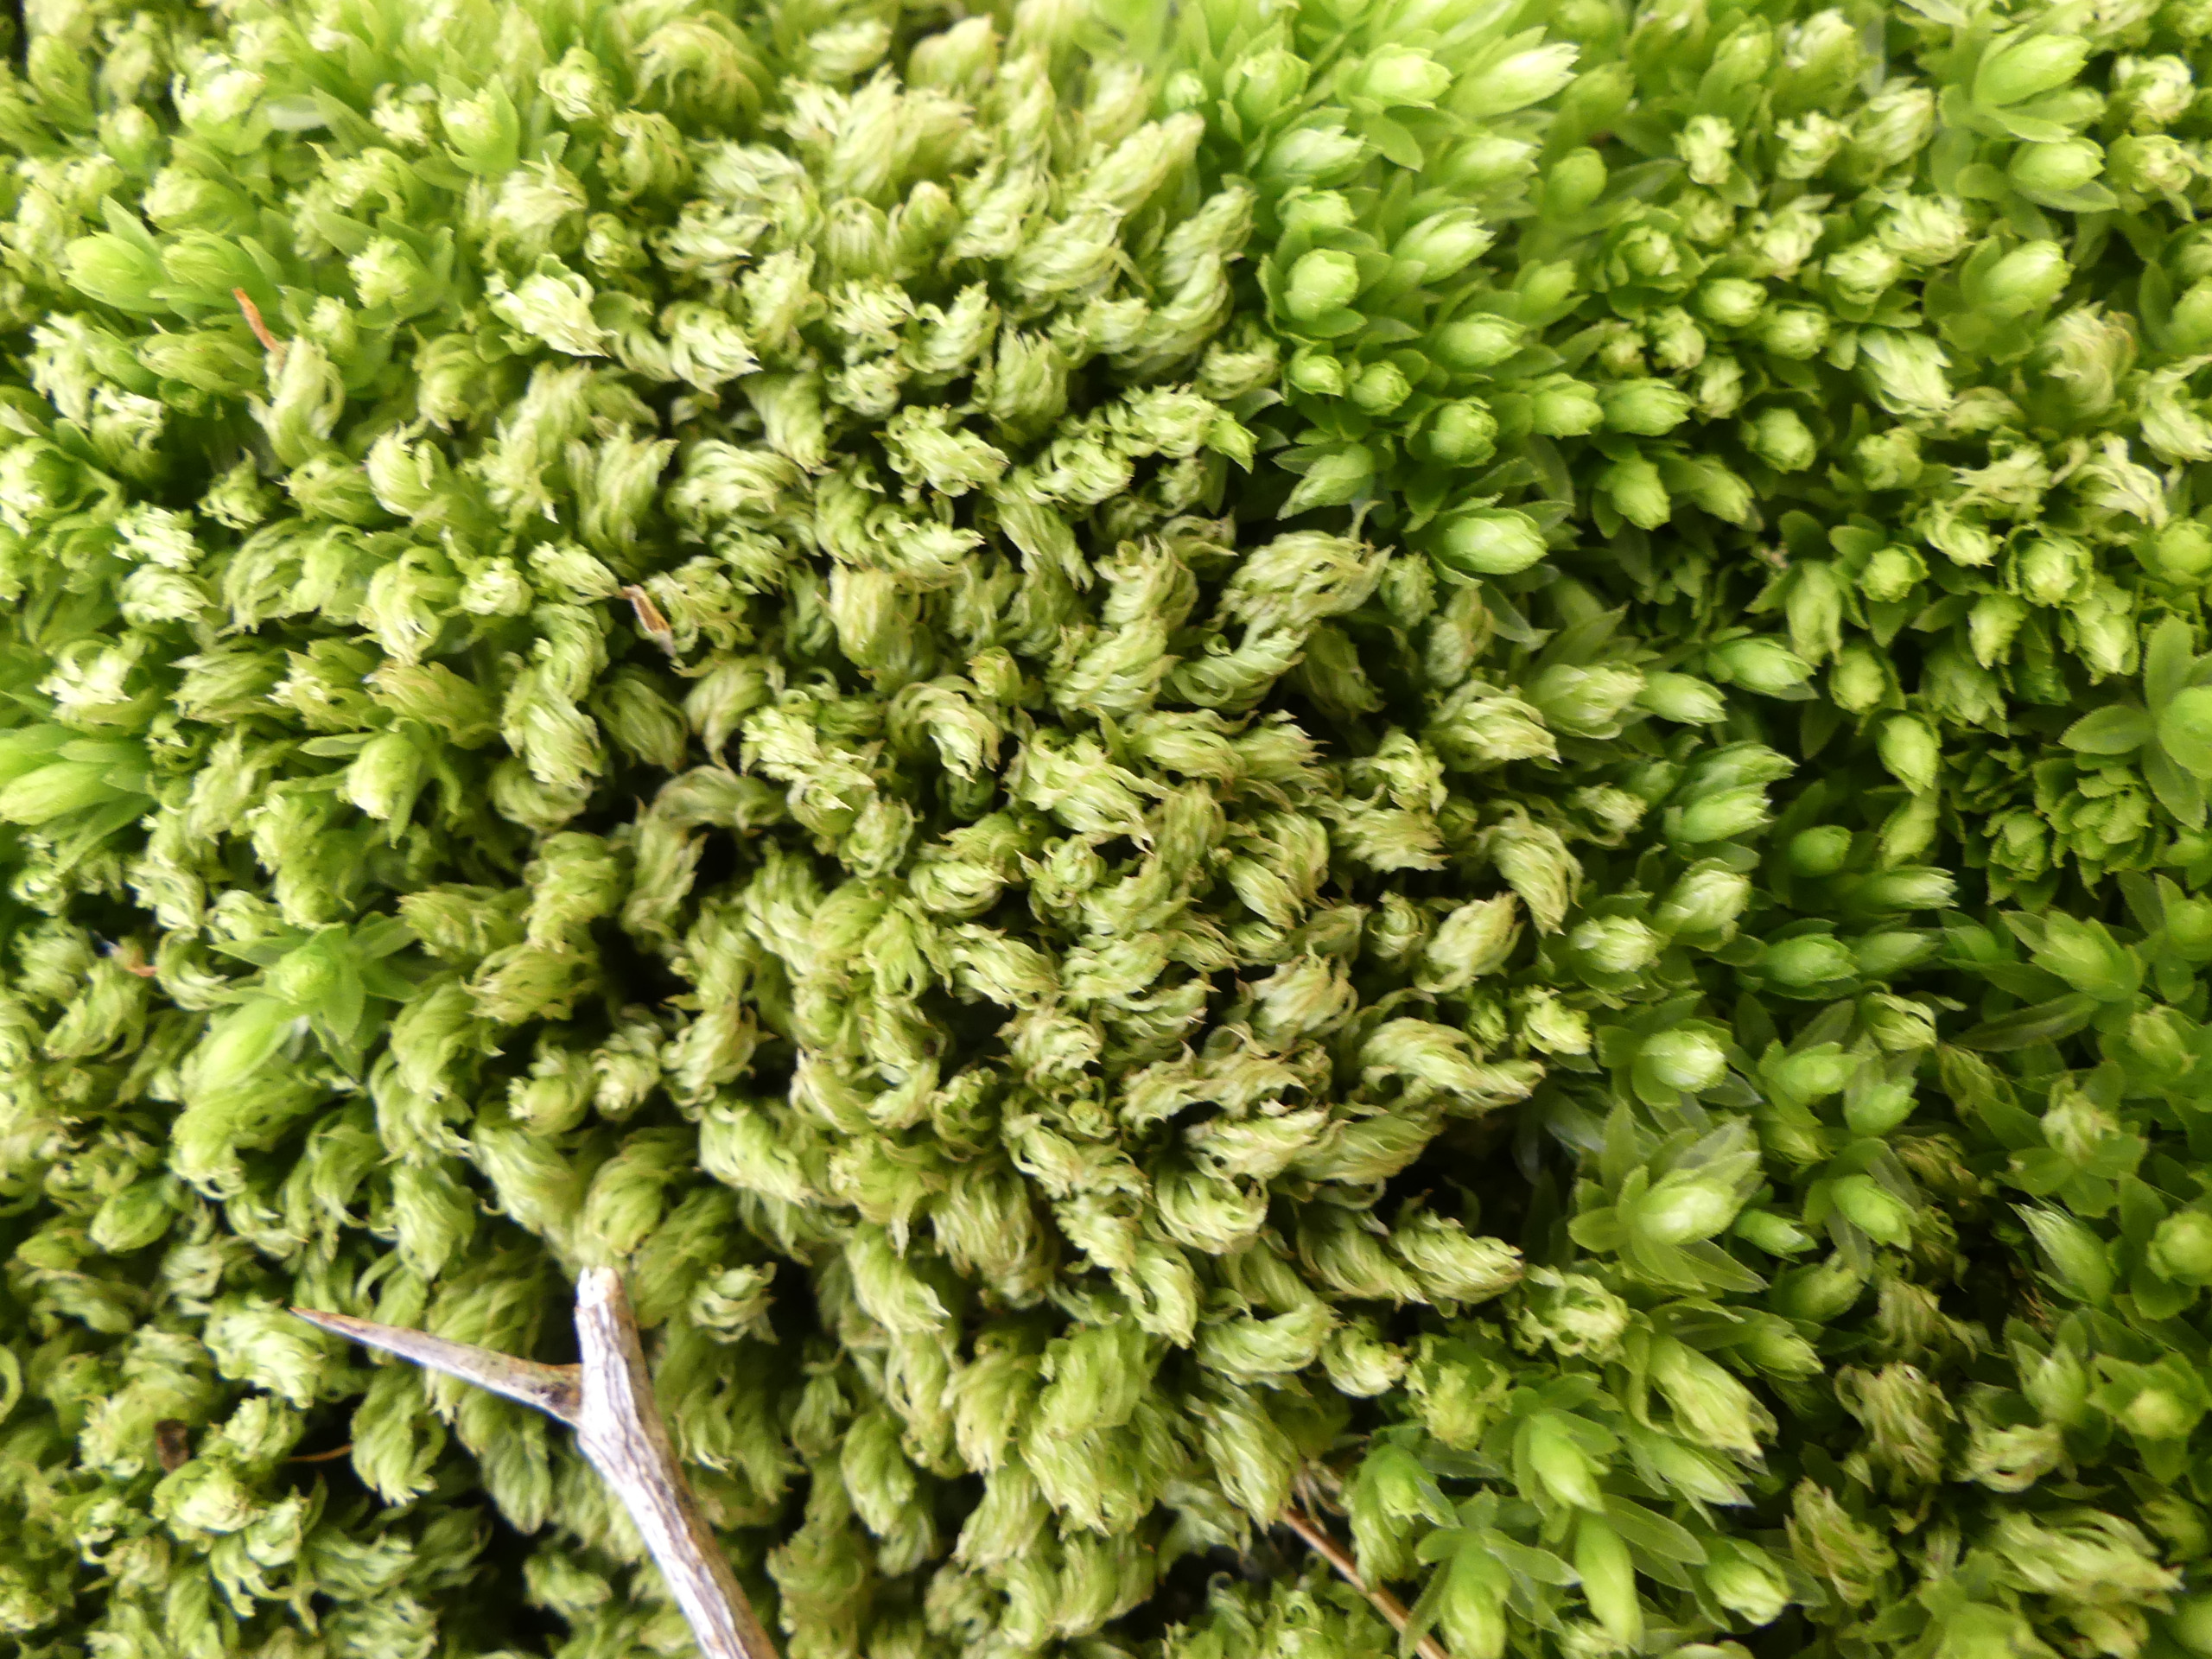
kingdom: Plantae
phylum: Bryophyta
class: Bryopsida
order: Bryales
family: Mniaceae
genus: Mnium
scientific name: Mnium hornum
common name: Brunfiltet stjernemos
